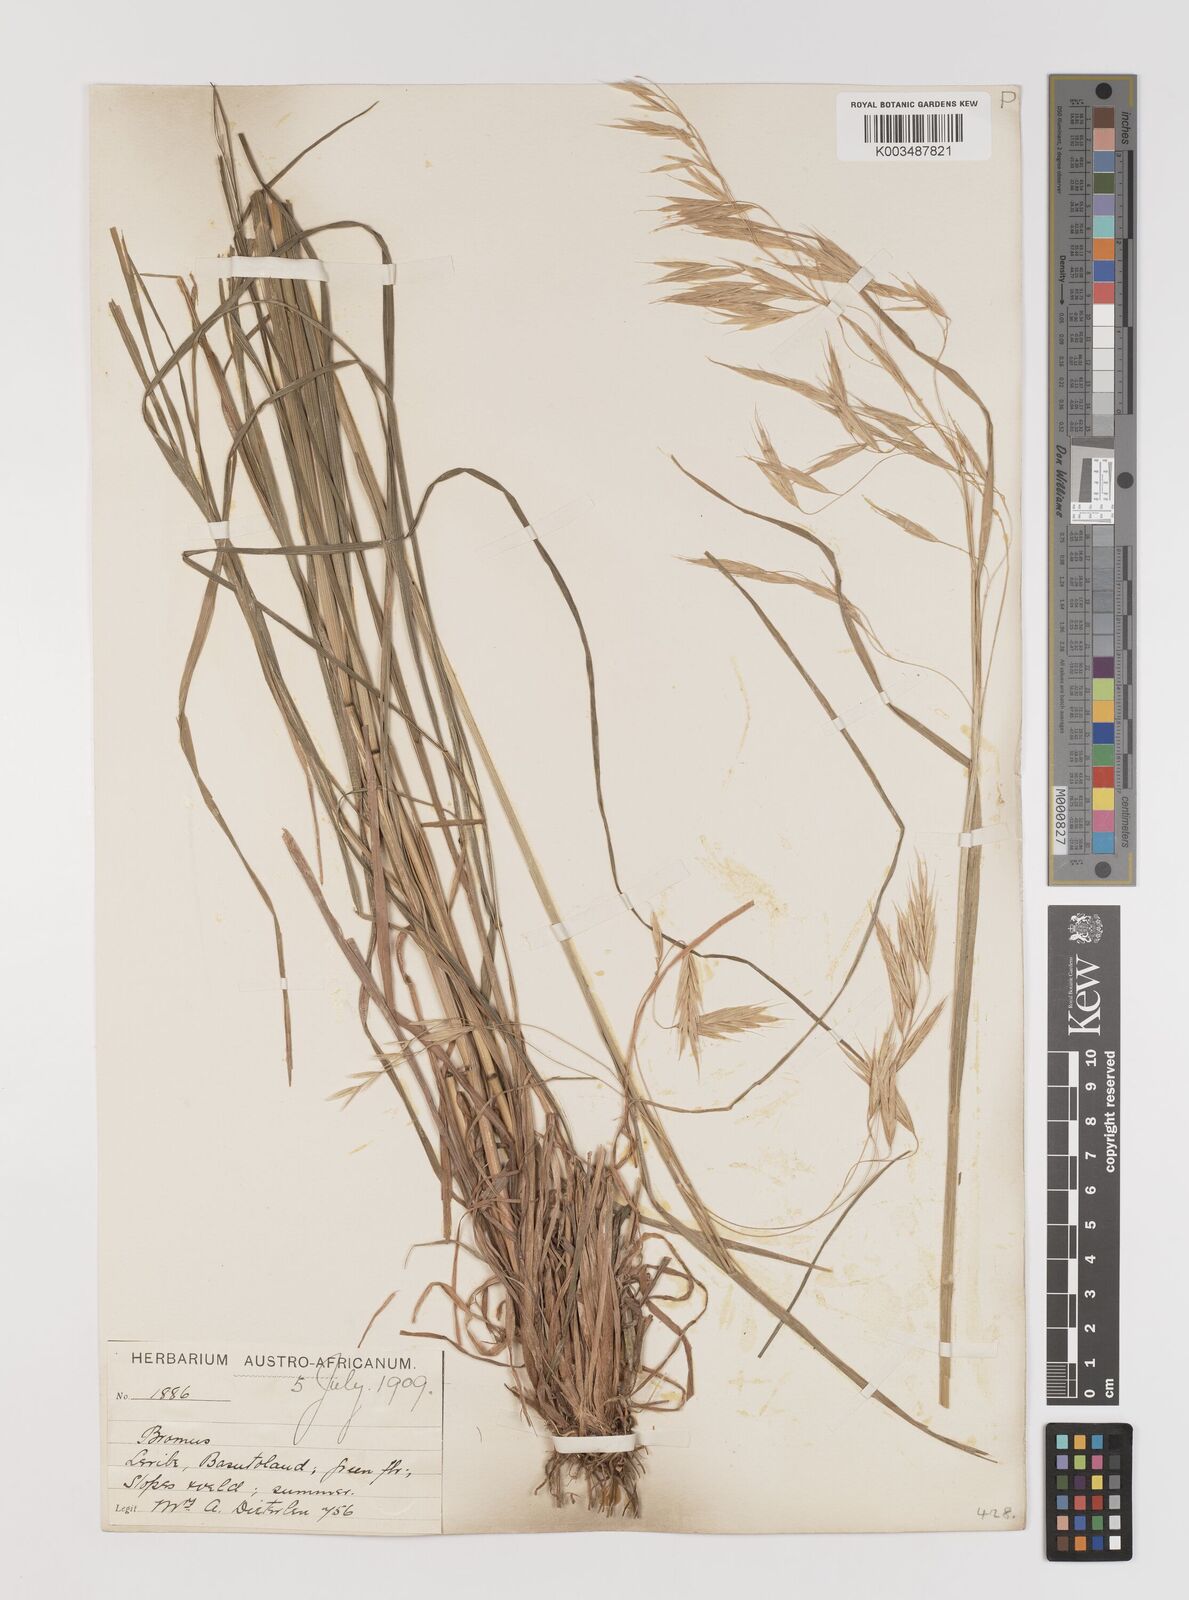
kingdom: Plantae
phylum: Tracheophyta
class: Liliopsida
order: Poales
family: Poaceae
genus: Bromus
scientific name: Bromus
